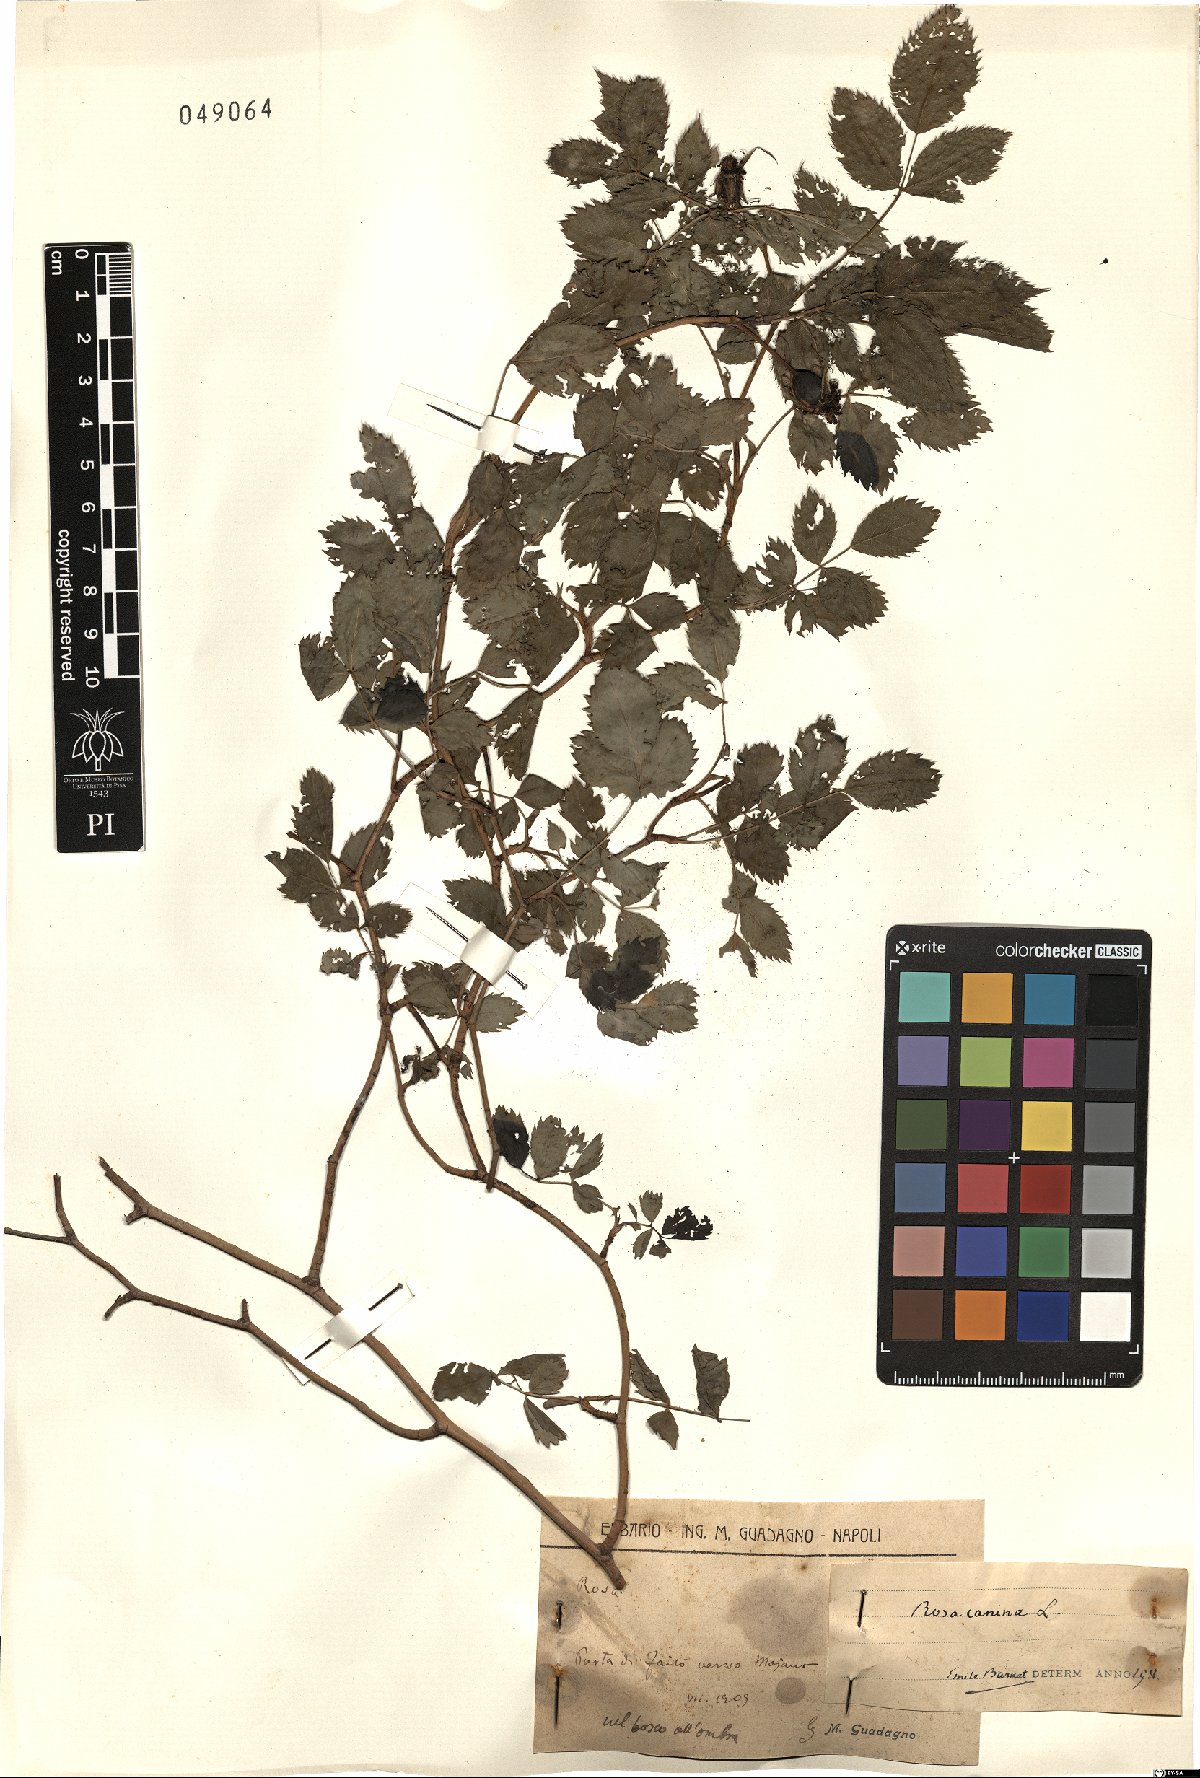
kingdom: Plantae
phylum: Tracheophyta
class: Magnoliopsida
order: Rosales
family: Rosaceae
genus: Rosa
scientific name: Rosa canina
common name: Dog rose
